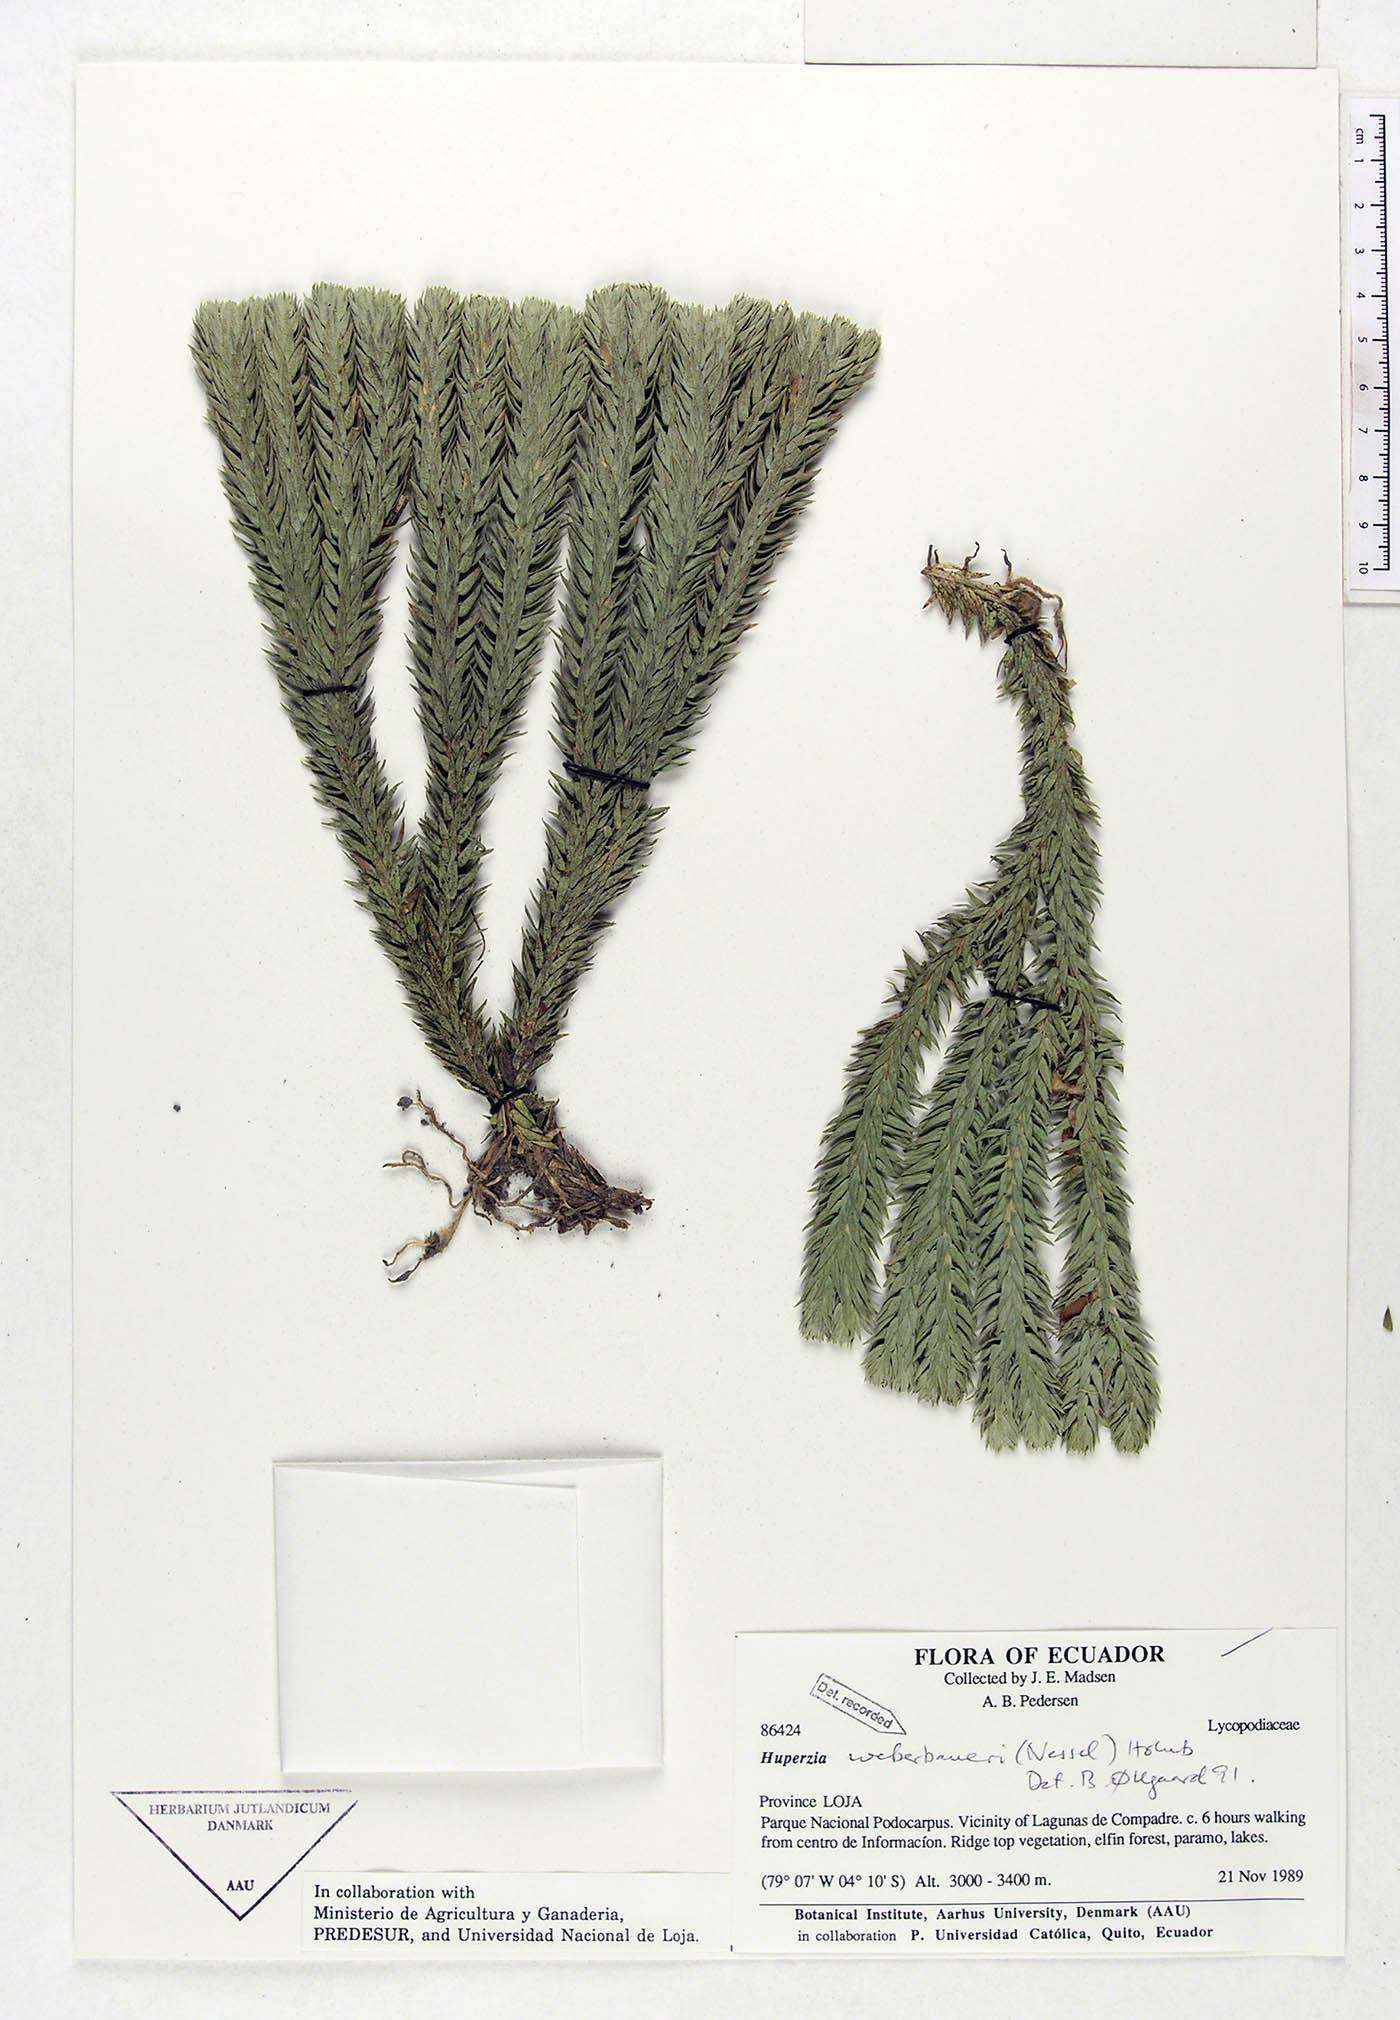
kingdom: Plantae
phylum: Tracheophyta
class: Lycopodiopsida
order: Lycopodiales
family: Lycopodiaceae
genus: Phlegmariurus
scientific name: Phlegmariurus weberbaueri
